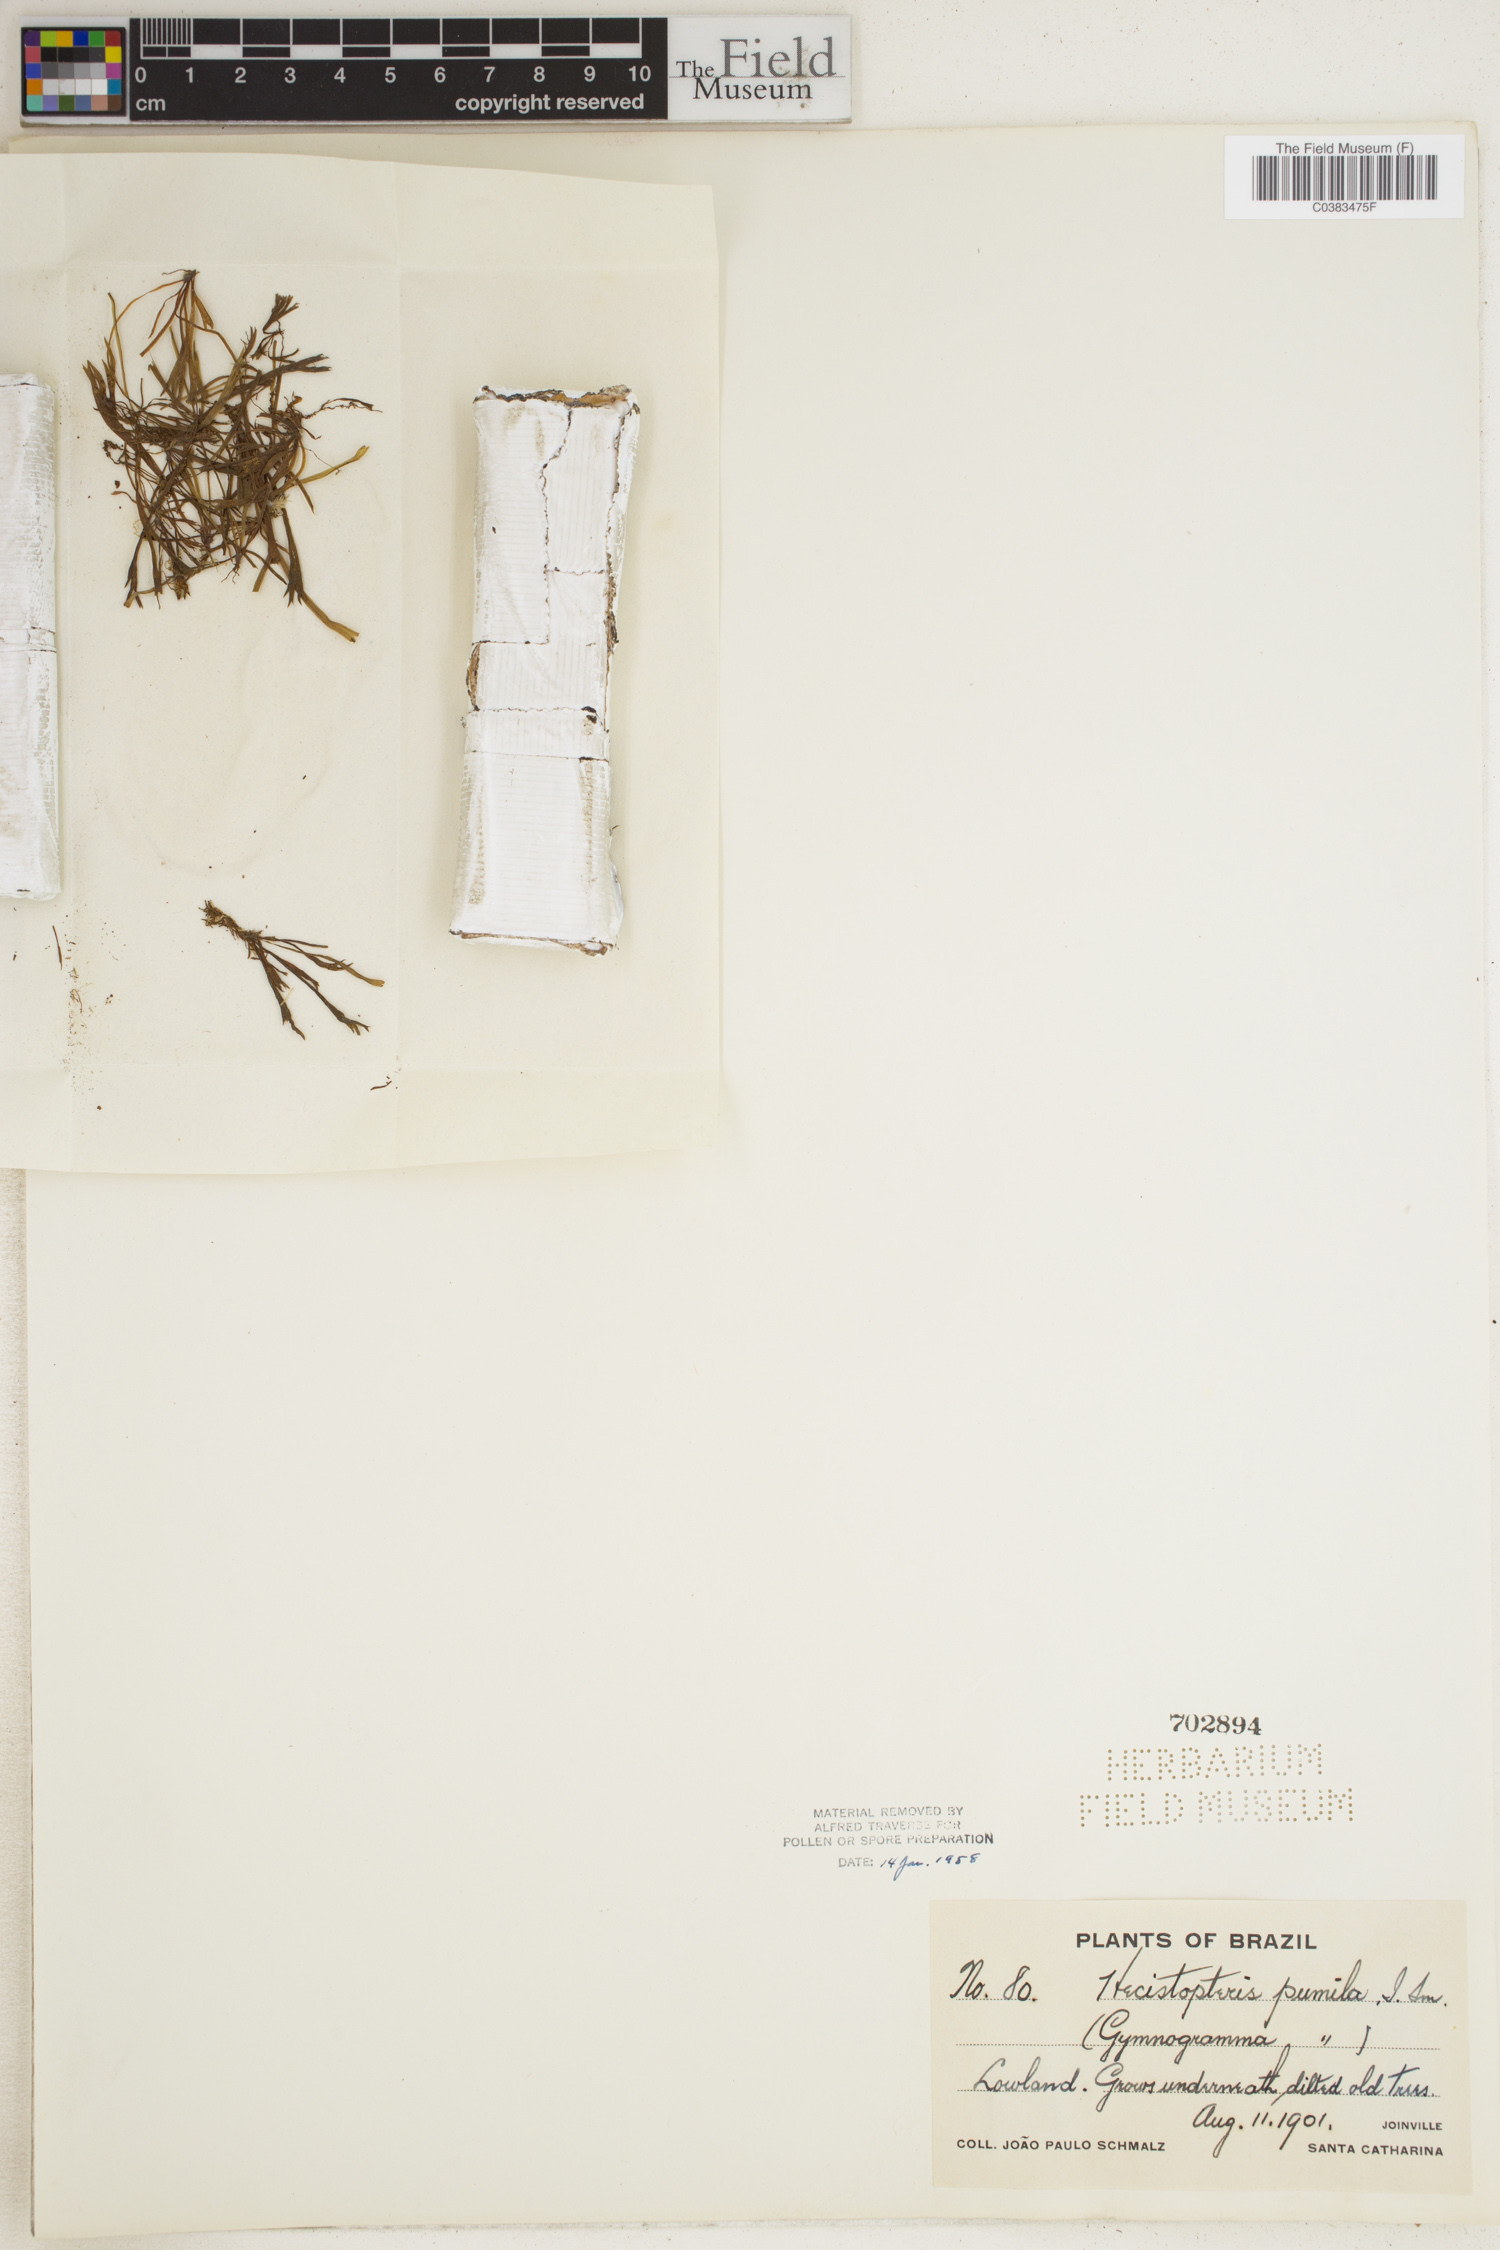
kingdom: Plantae
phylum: Tracheophyta
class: Polypodiopsida
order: Polypodiales
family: Pteridaceae
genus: Hecistopteris
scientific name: Hecistopteris pumila
